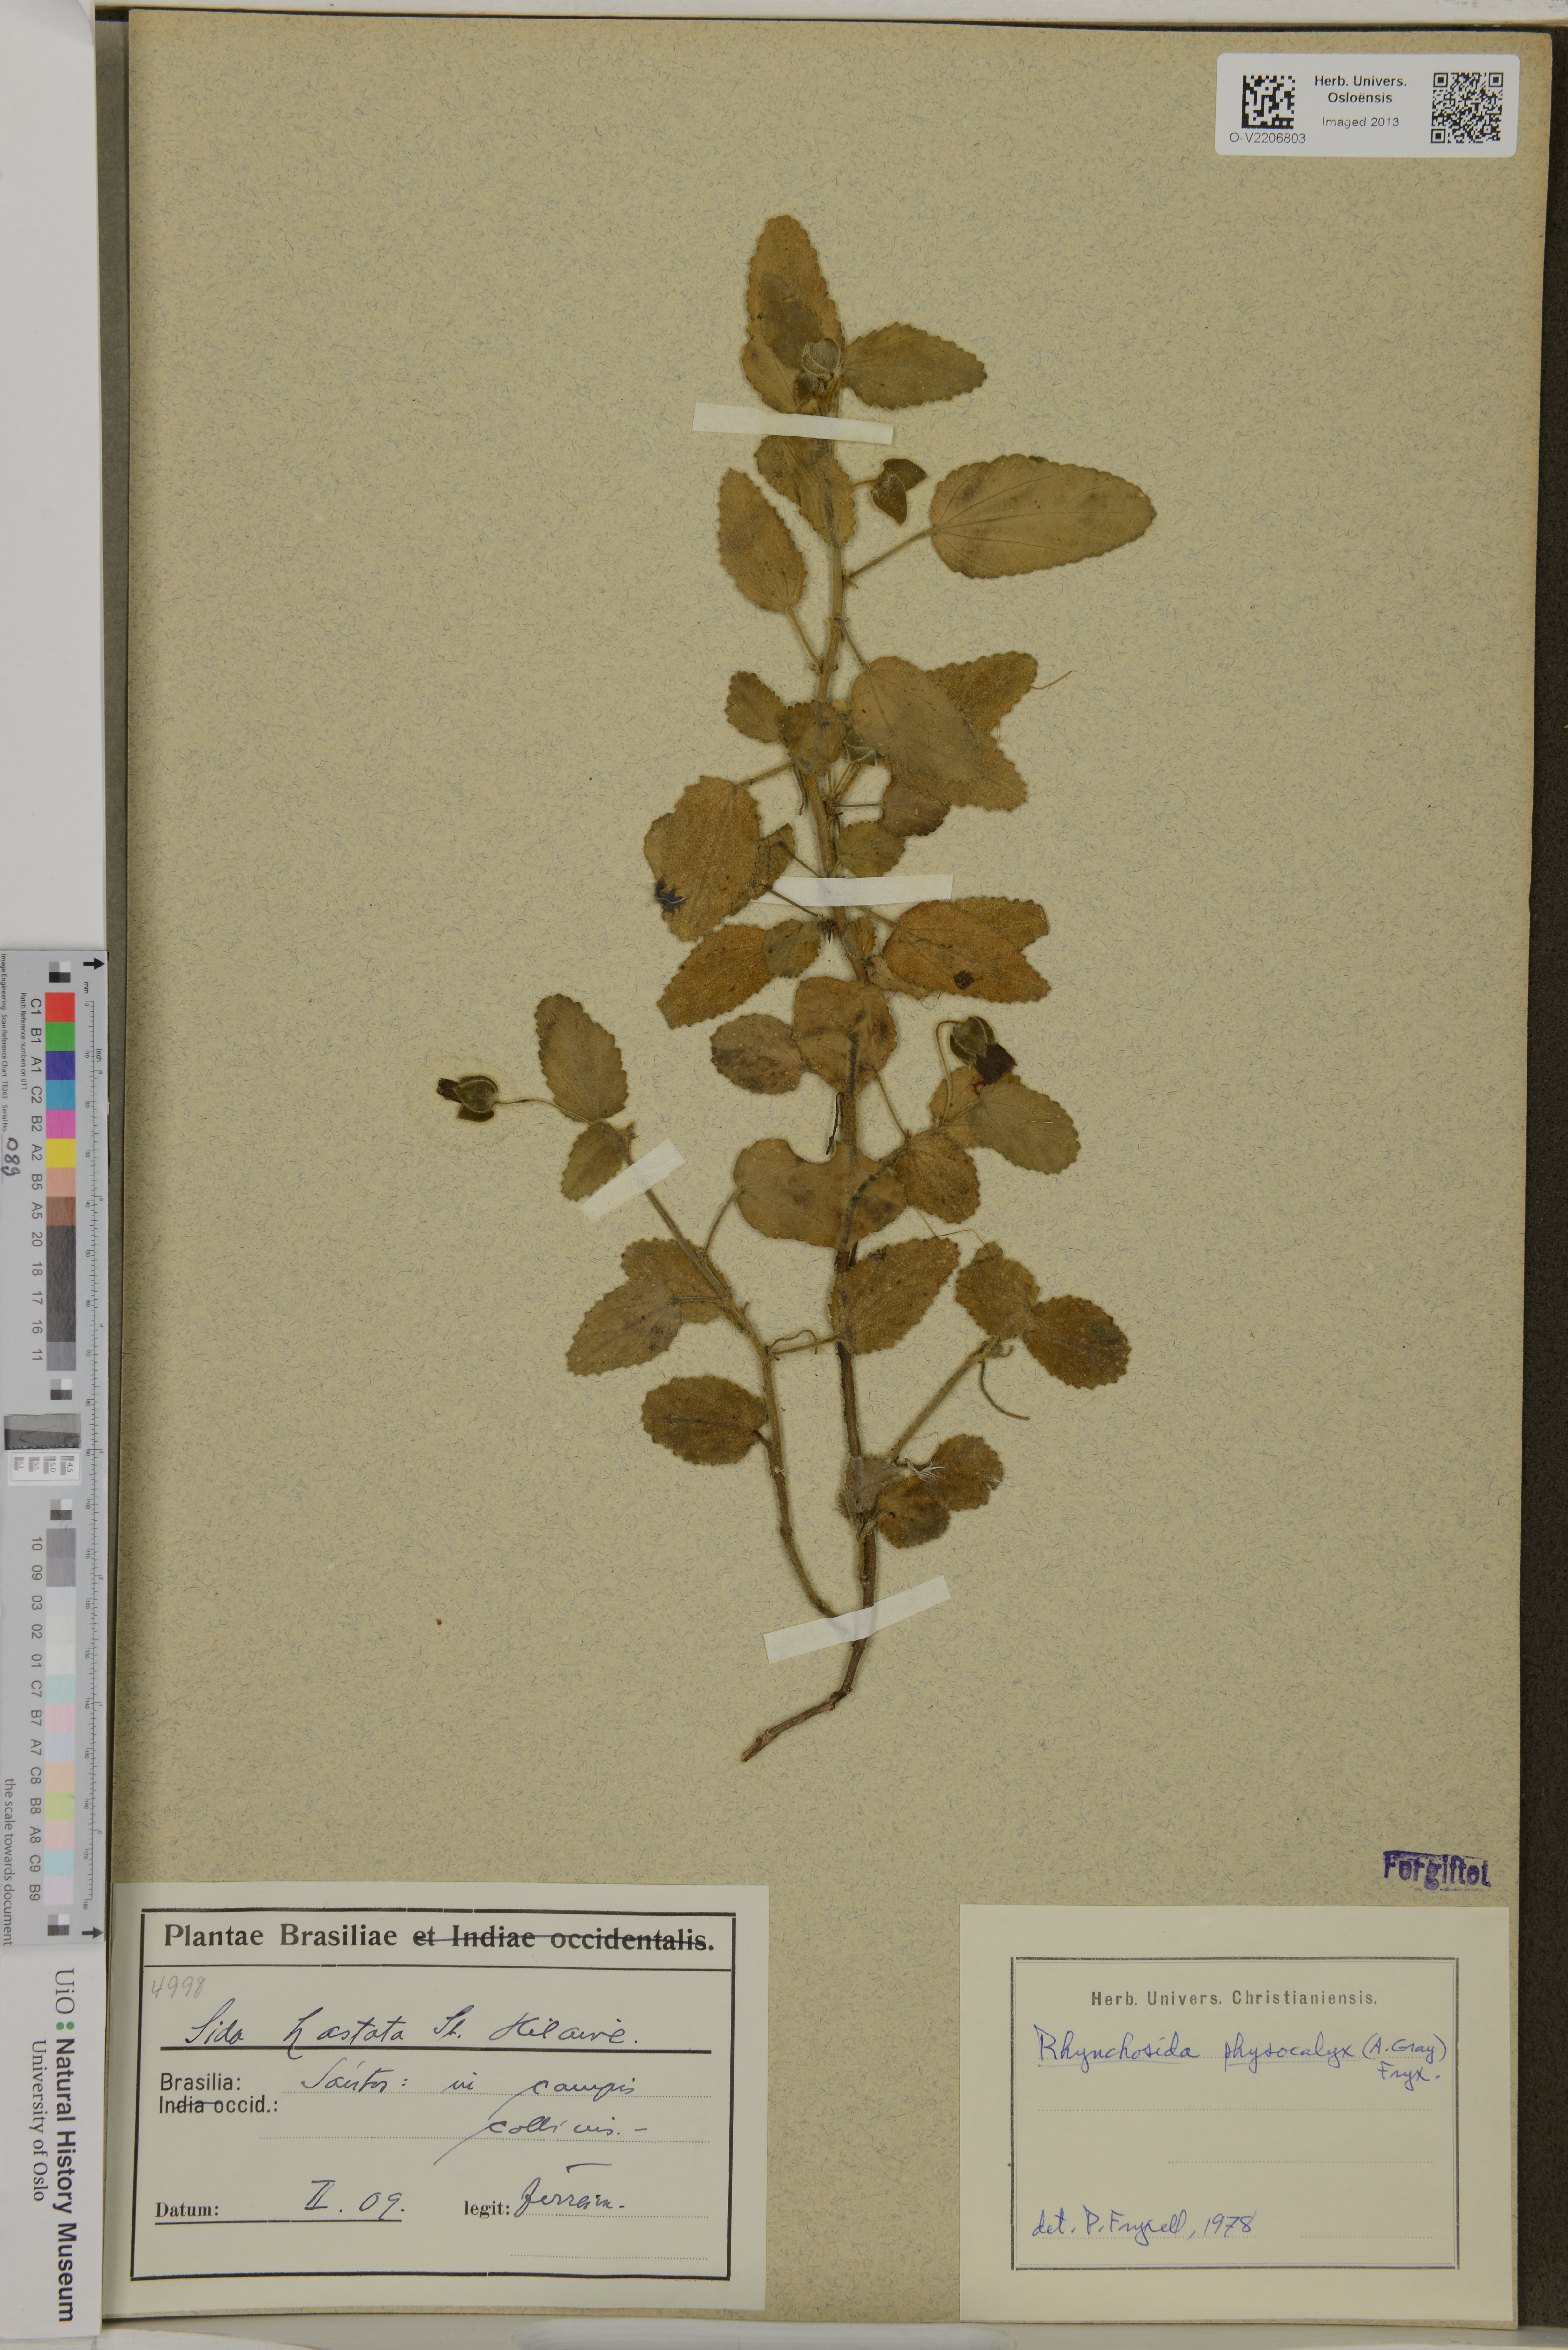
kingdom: Plantae
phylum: Tracheophyta
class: Magnoliopsida
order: Malvales
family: Malvaceae
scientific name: Malvaceae
